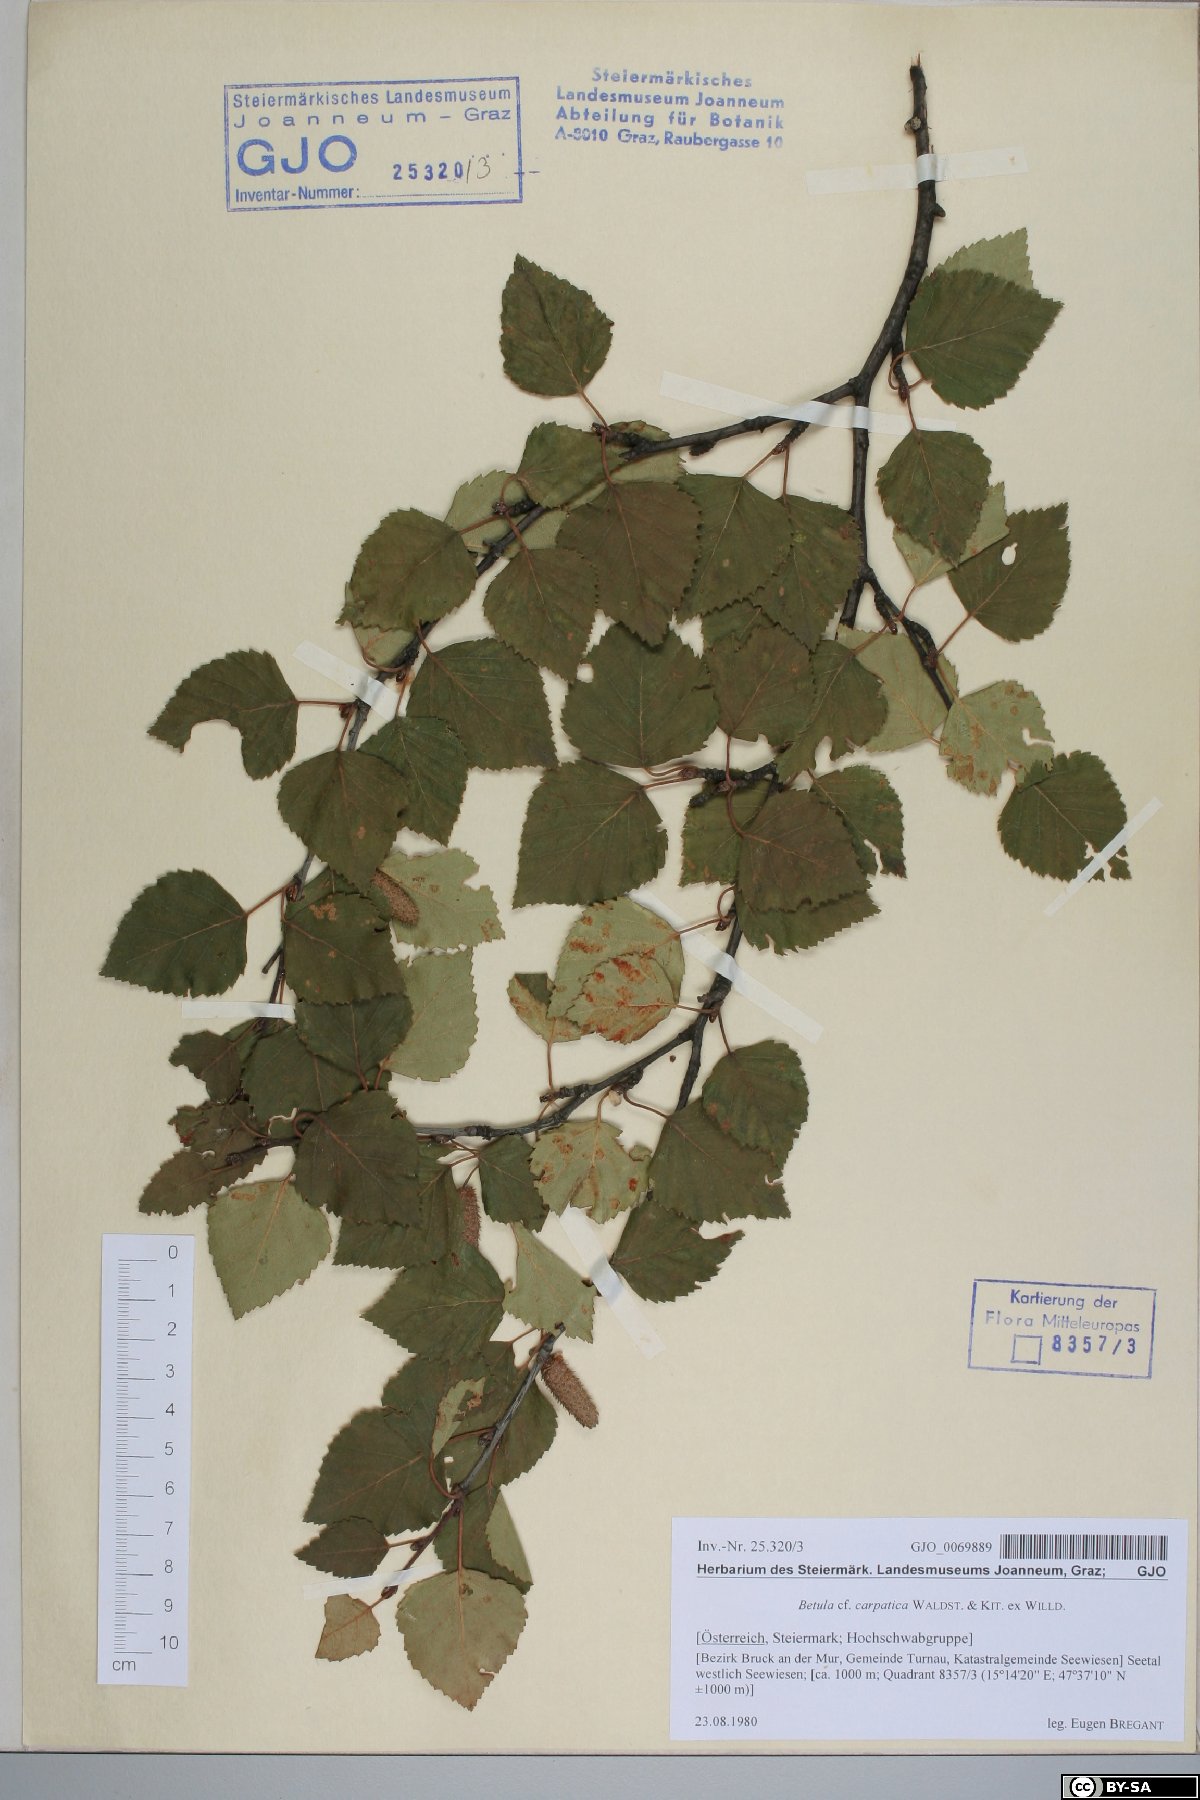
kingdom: Plantae
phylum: Tracheophyta
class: Magnoliopsida
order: Fagales
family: Betulaceae
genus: Betula
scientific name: Betula pubescens
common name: Downy birch
